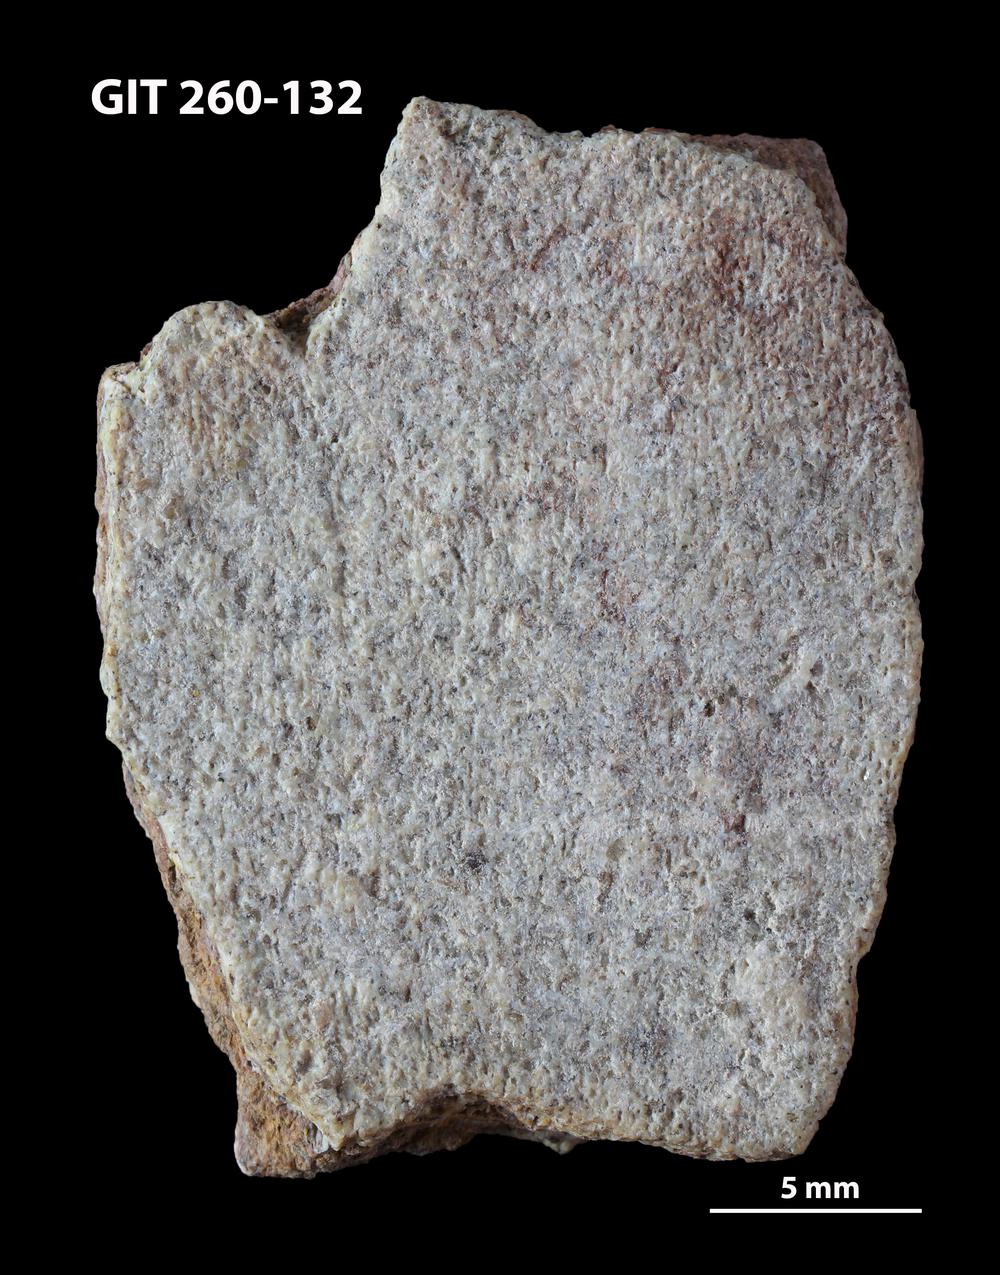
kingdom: Animalia
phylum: Chordata
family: Homostiidae
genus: Homostius
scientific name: Homostius
